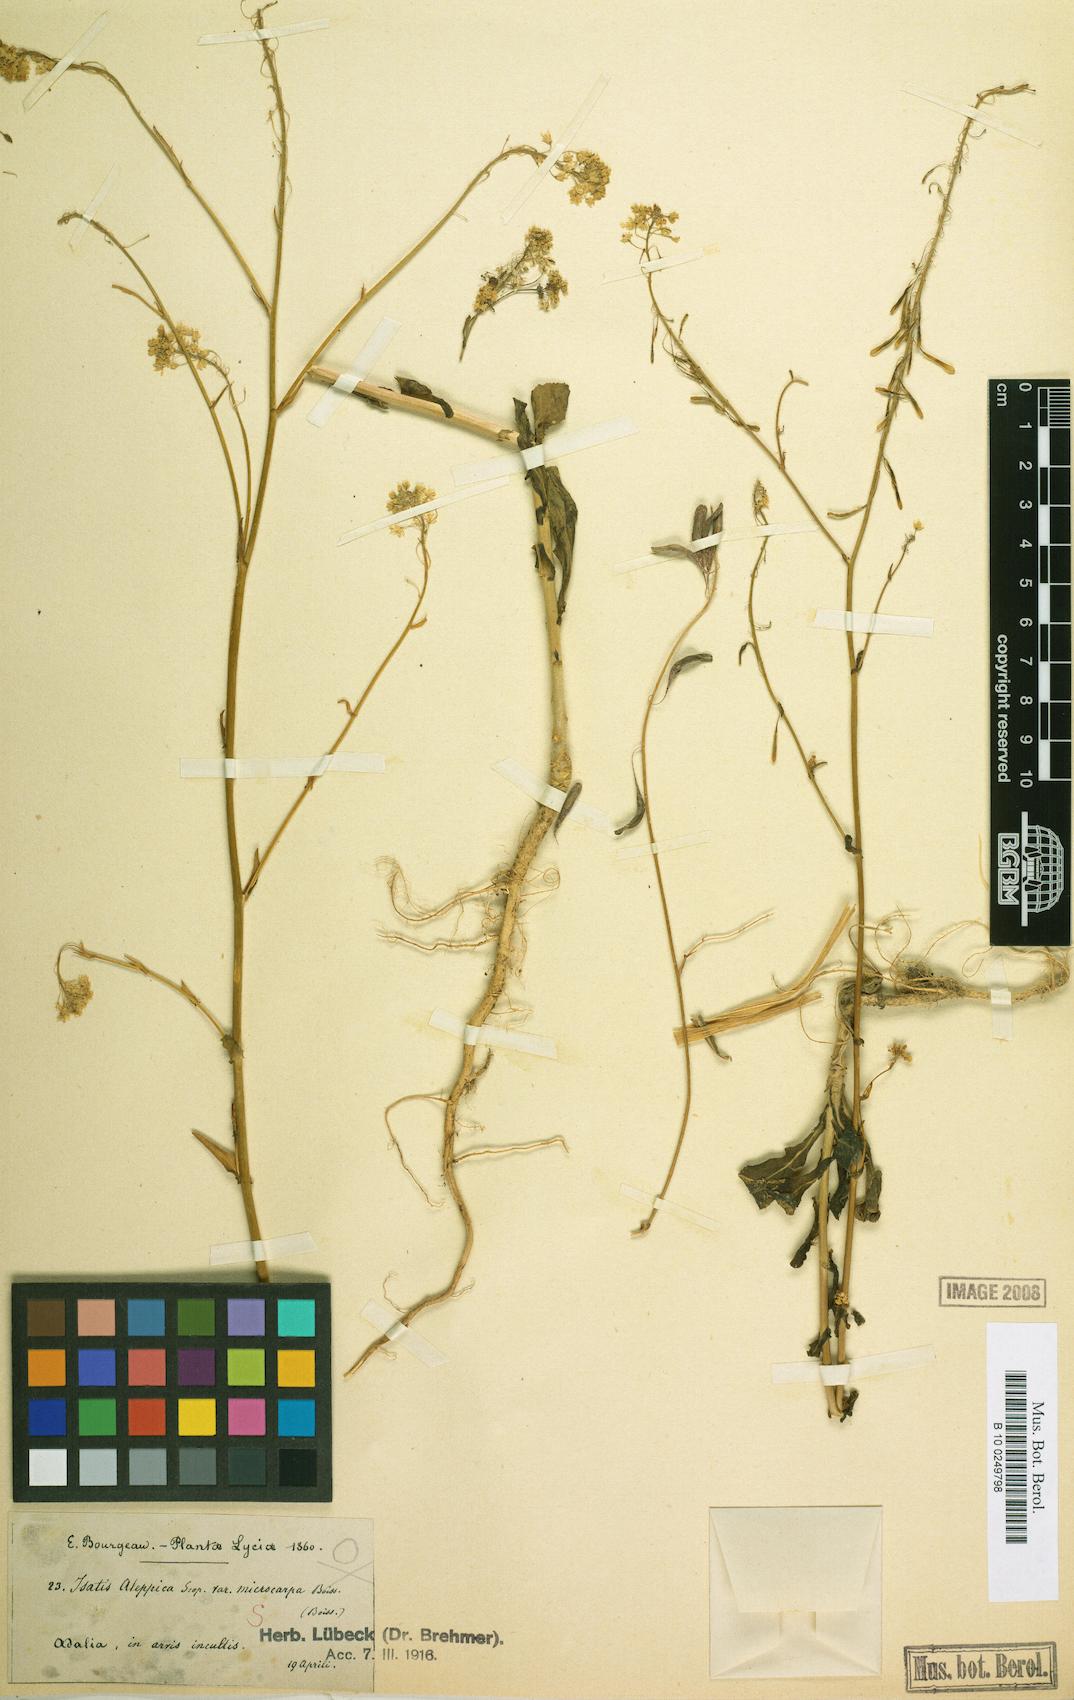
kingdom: Plantae
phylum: Tracheophyta
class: Magnoliopsida
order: Brassicales
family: Brassicaceae
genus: Isatis
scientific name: Isatis lusitanica
